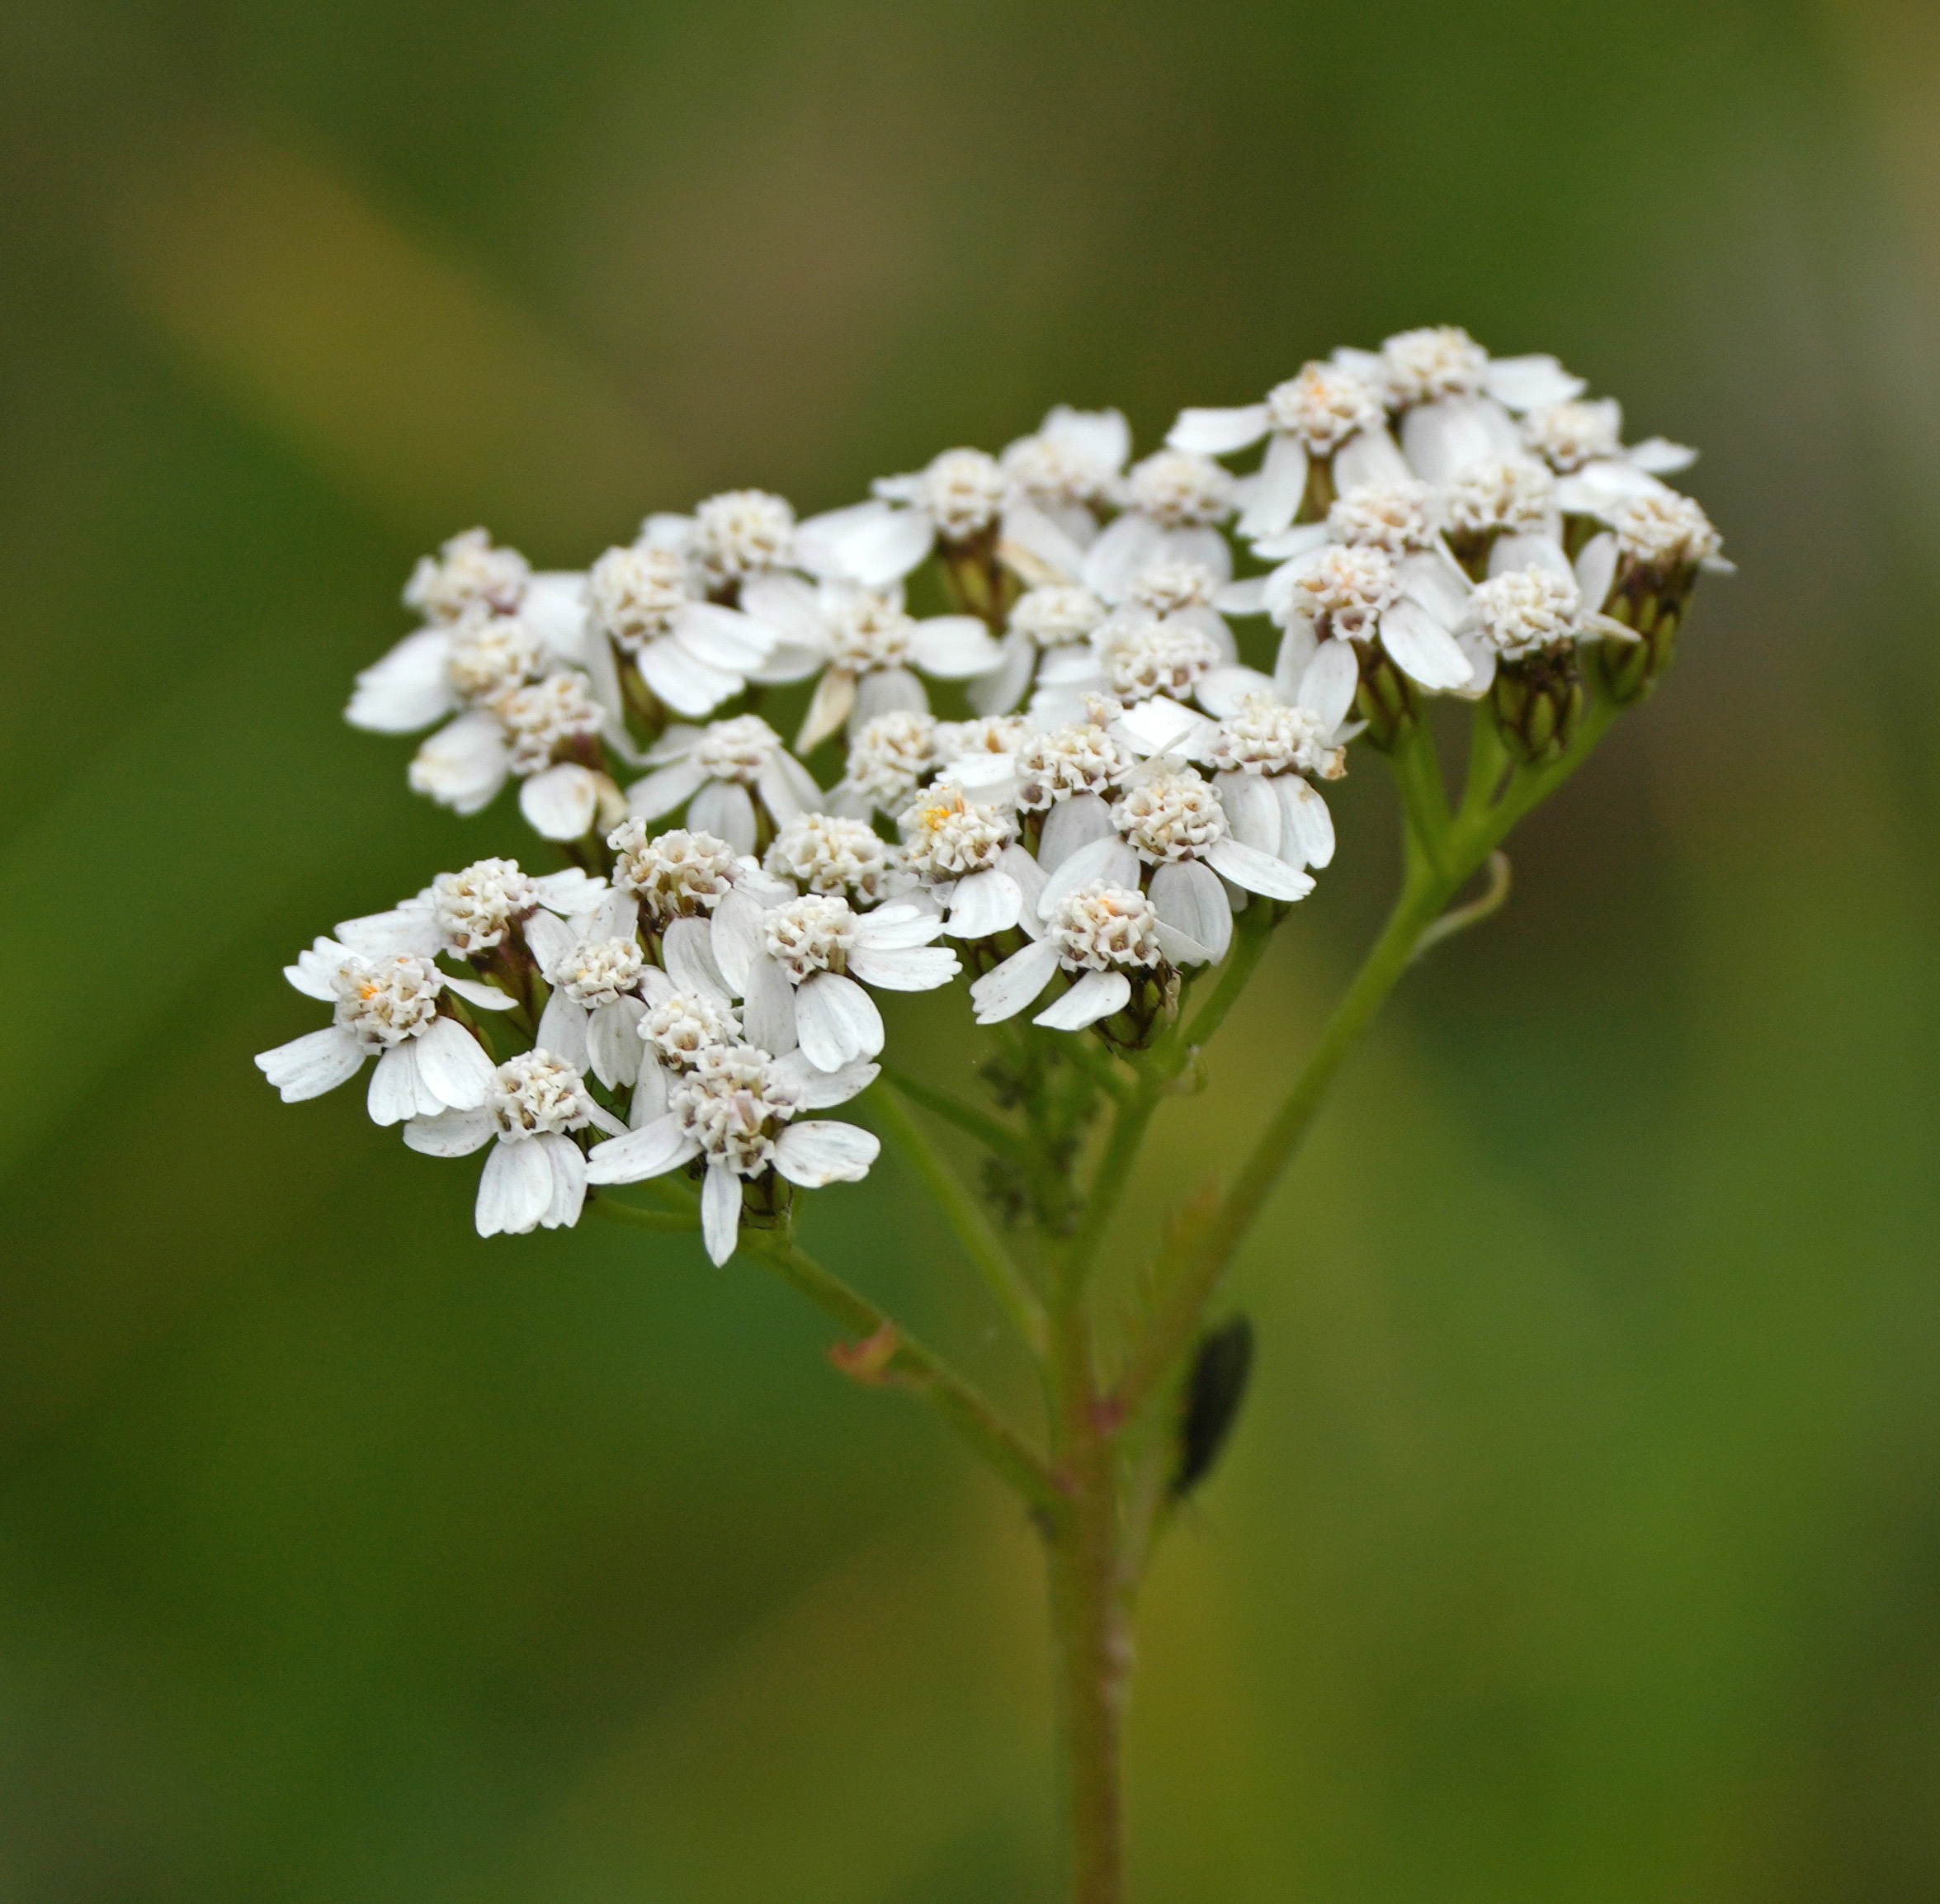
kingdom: Plantae
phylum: Tracheophyta
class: Magnoliopsida
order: Asterales
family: Asteraceae
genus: Achillea
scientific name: Achillea millefolium
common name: Almindelig røllike (underart)
